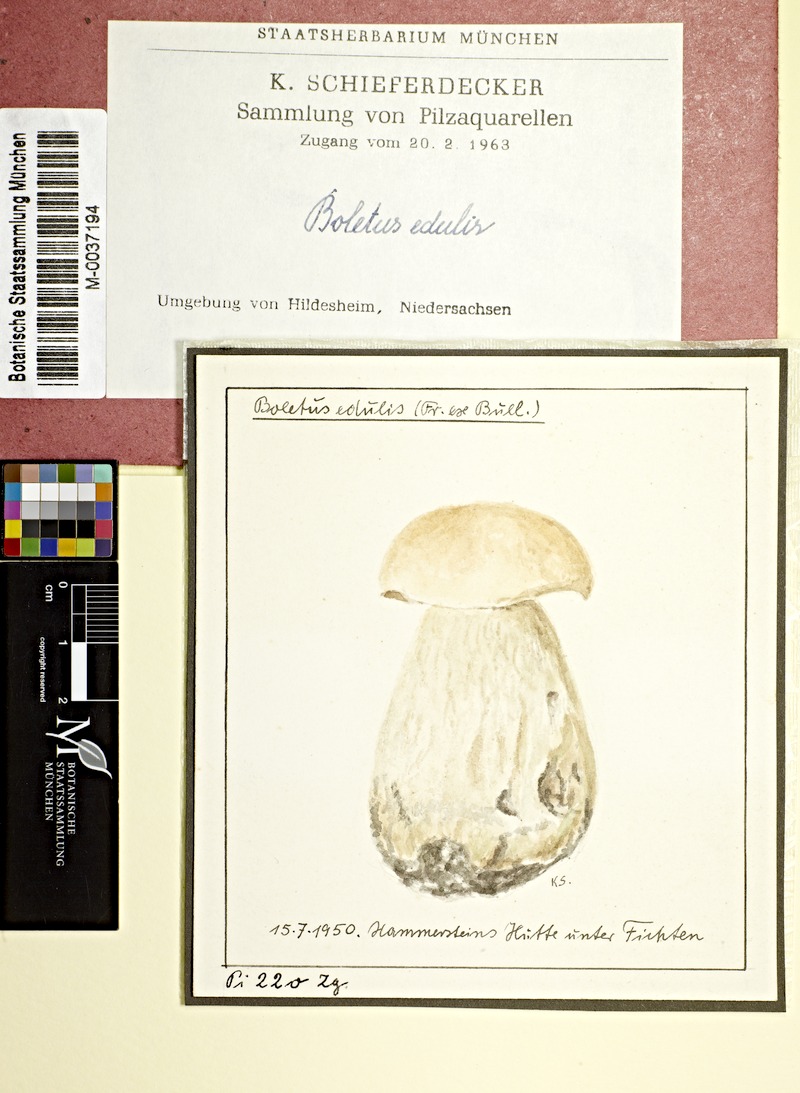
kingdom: Fungi
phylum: Basidiomycota
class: Agaricomycetes
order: Boletales
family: Boletaceae
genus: Boletus
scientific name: Boletus edulis
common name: Cep
